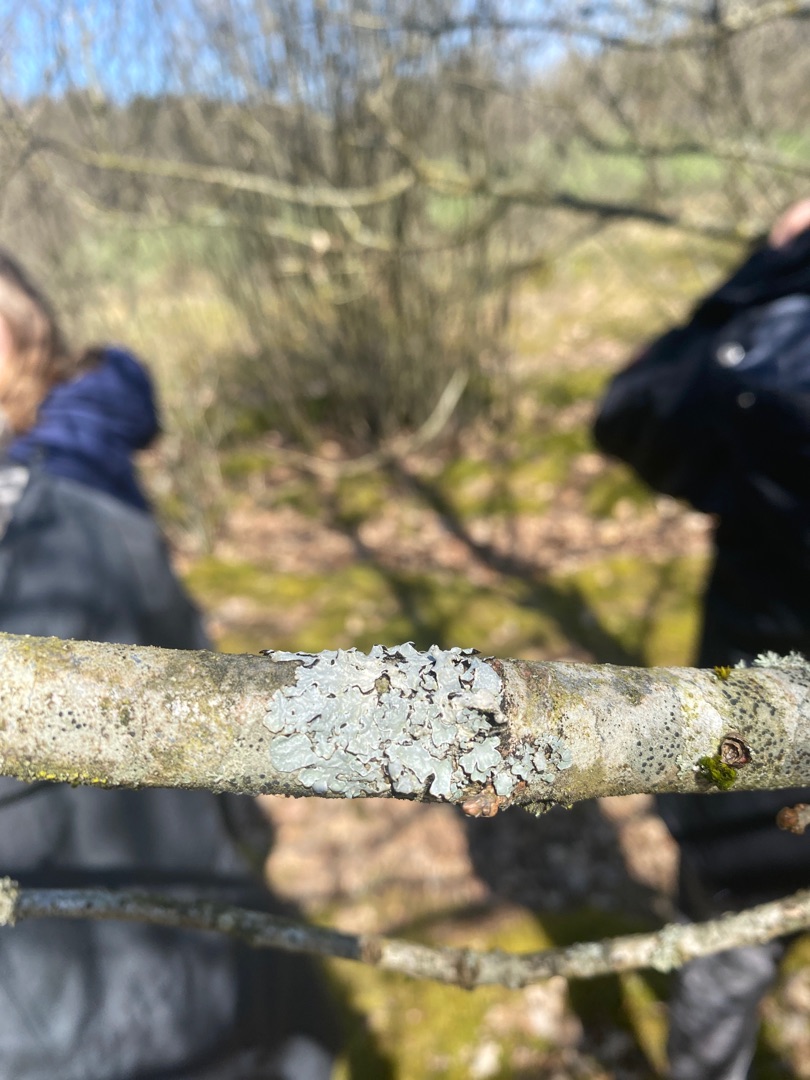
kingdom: Fungi
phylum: Ascomycota
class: Lecanoromycetes
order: Lecanorales
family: Parmeliaceae
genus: Parmelia
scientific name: Parmelia sulcata
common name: Rynket skållav
